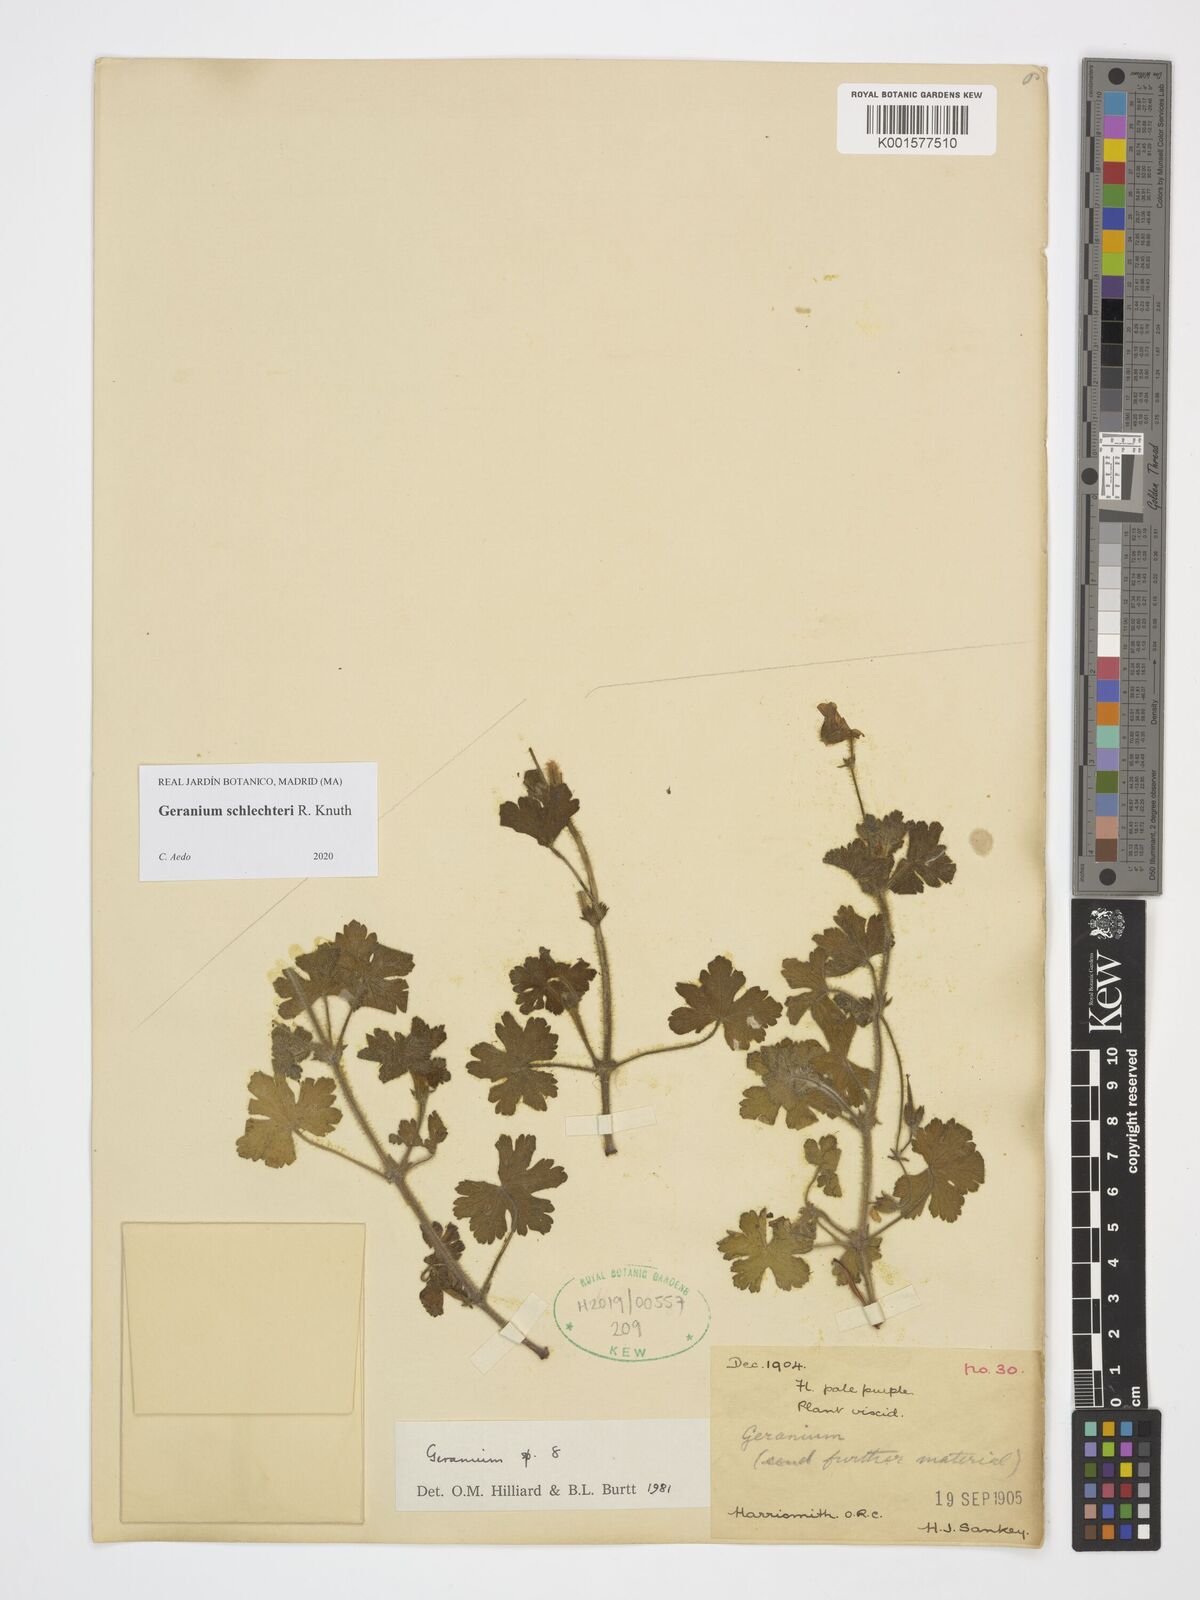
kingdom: Plantae
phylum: Tracheophyta
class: Magnoliopsida
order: Geraniales
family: Geraniaceae
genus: Geranium
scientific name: Geranium schlechteri
